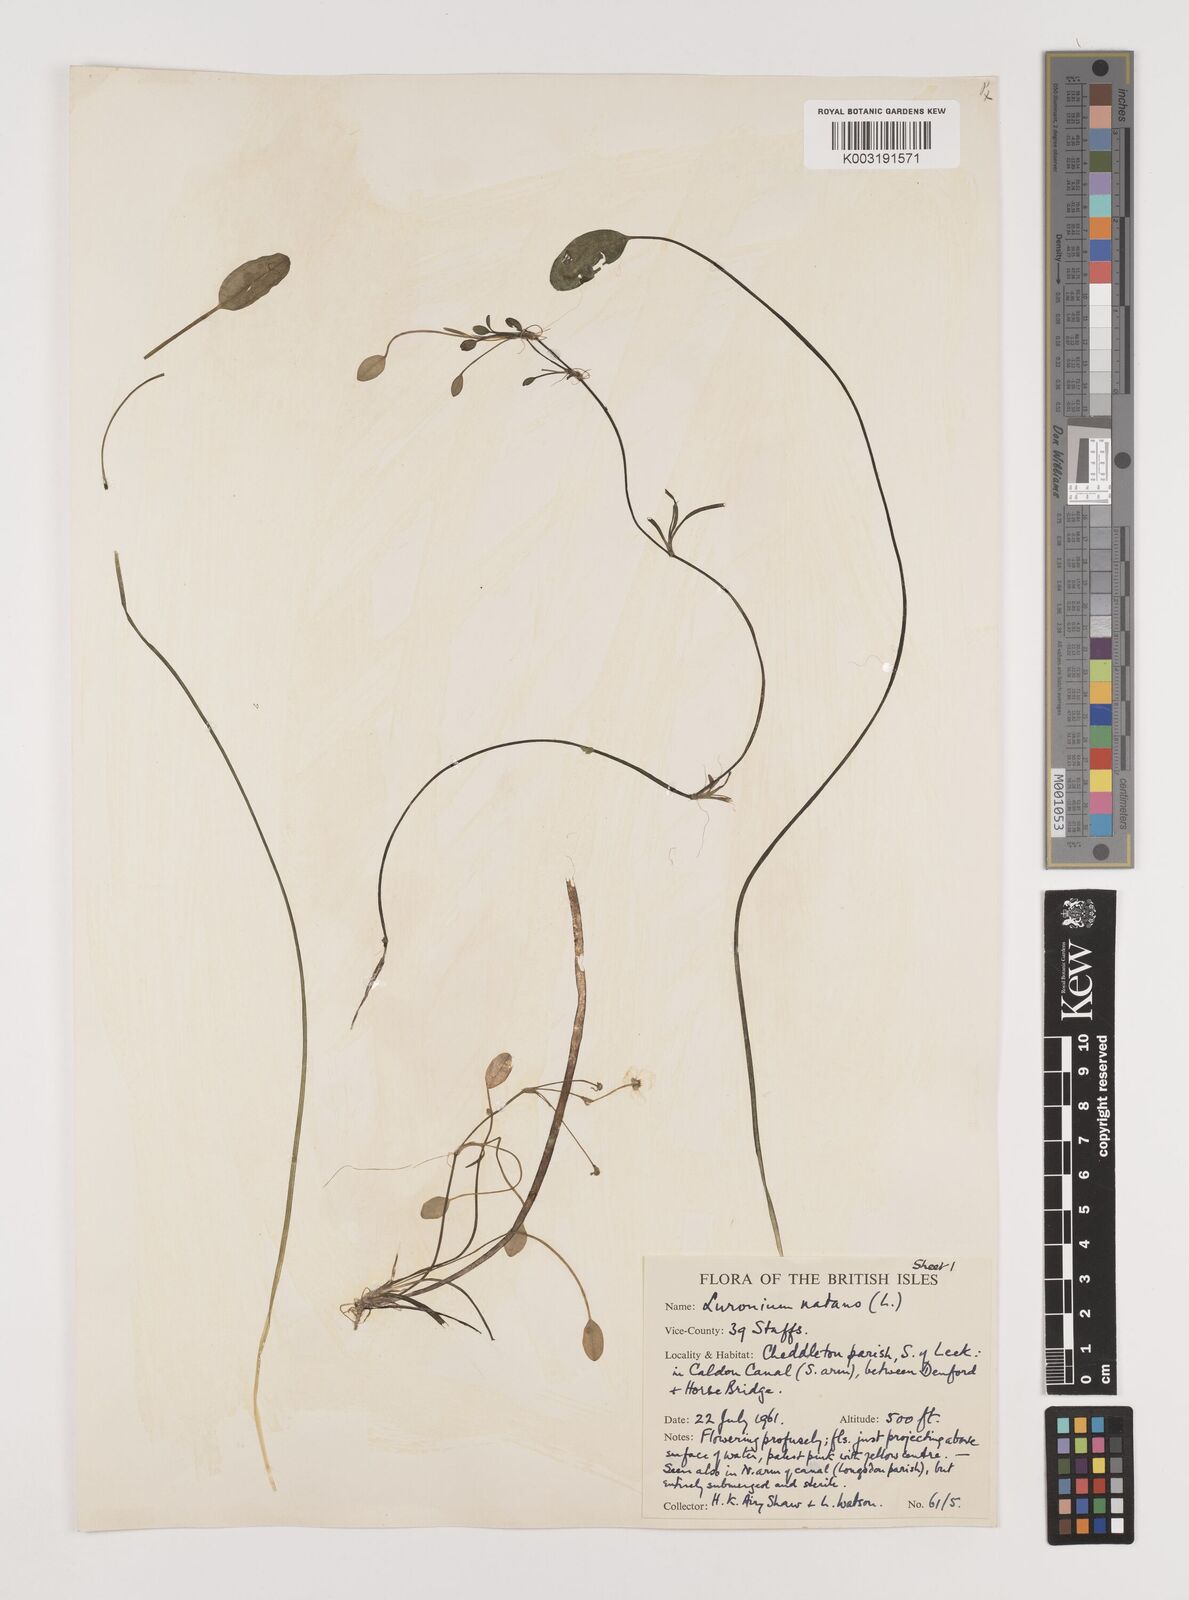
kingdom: Plantae
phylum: Tracheophyta
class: Liliopsida
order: Alismatales
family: Alismataceae
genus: Luronium
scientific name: Luronium natans
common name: Floating water-plantain
